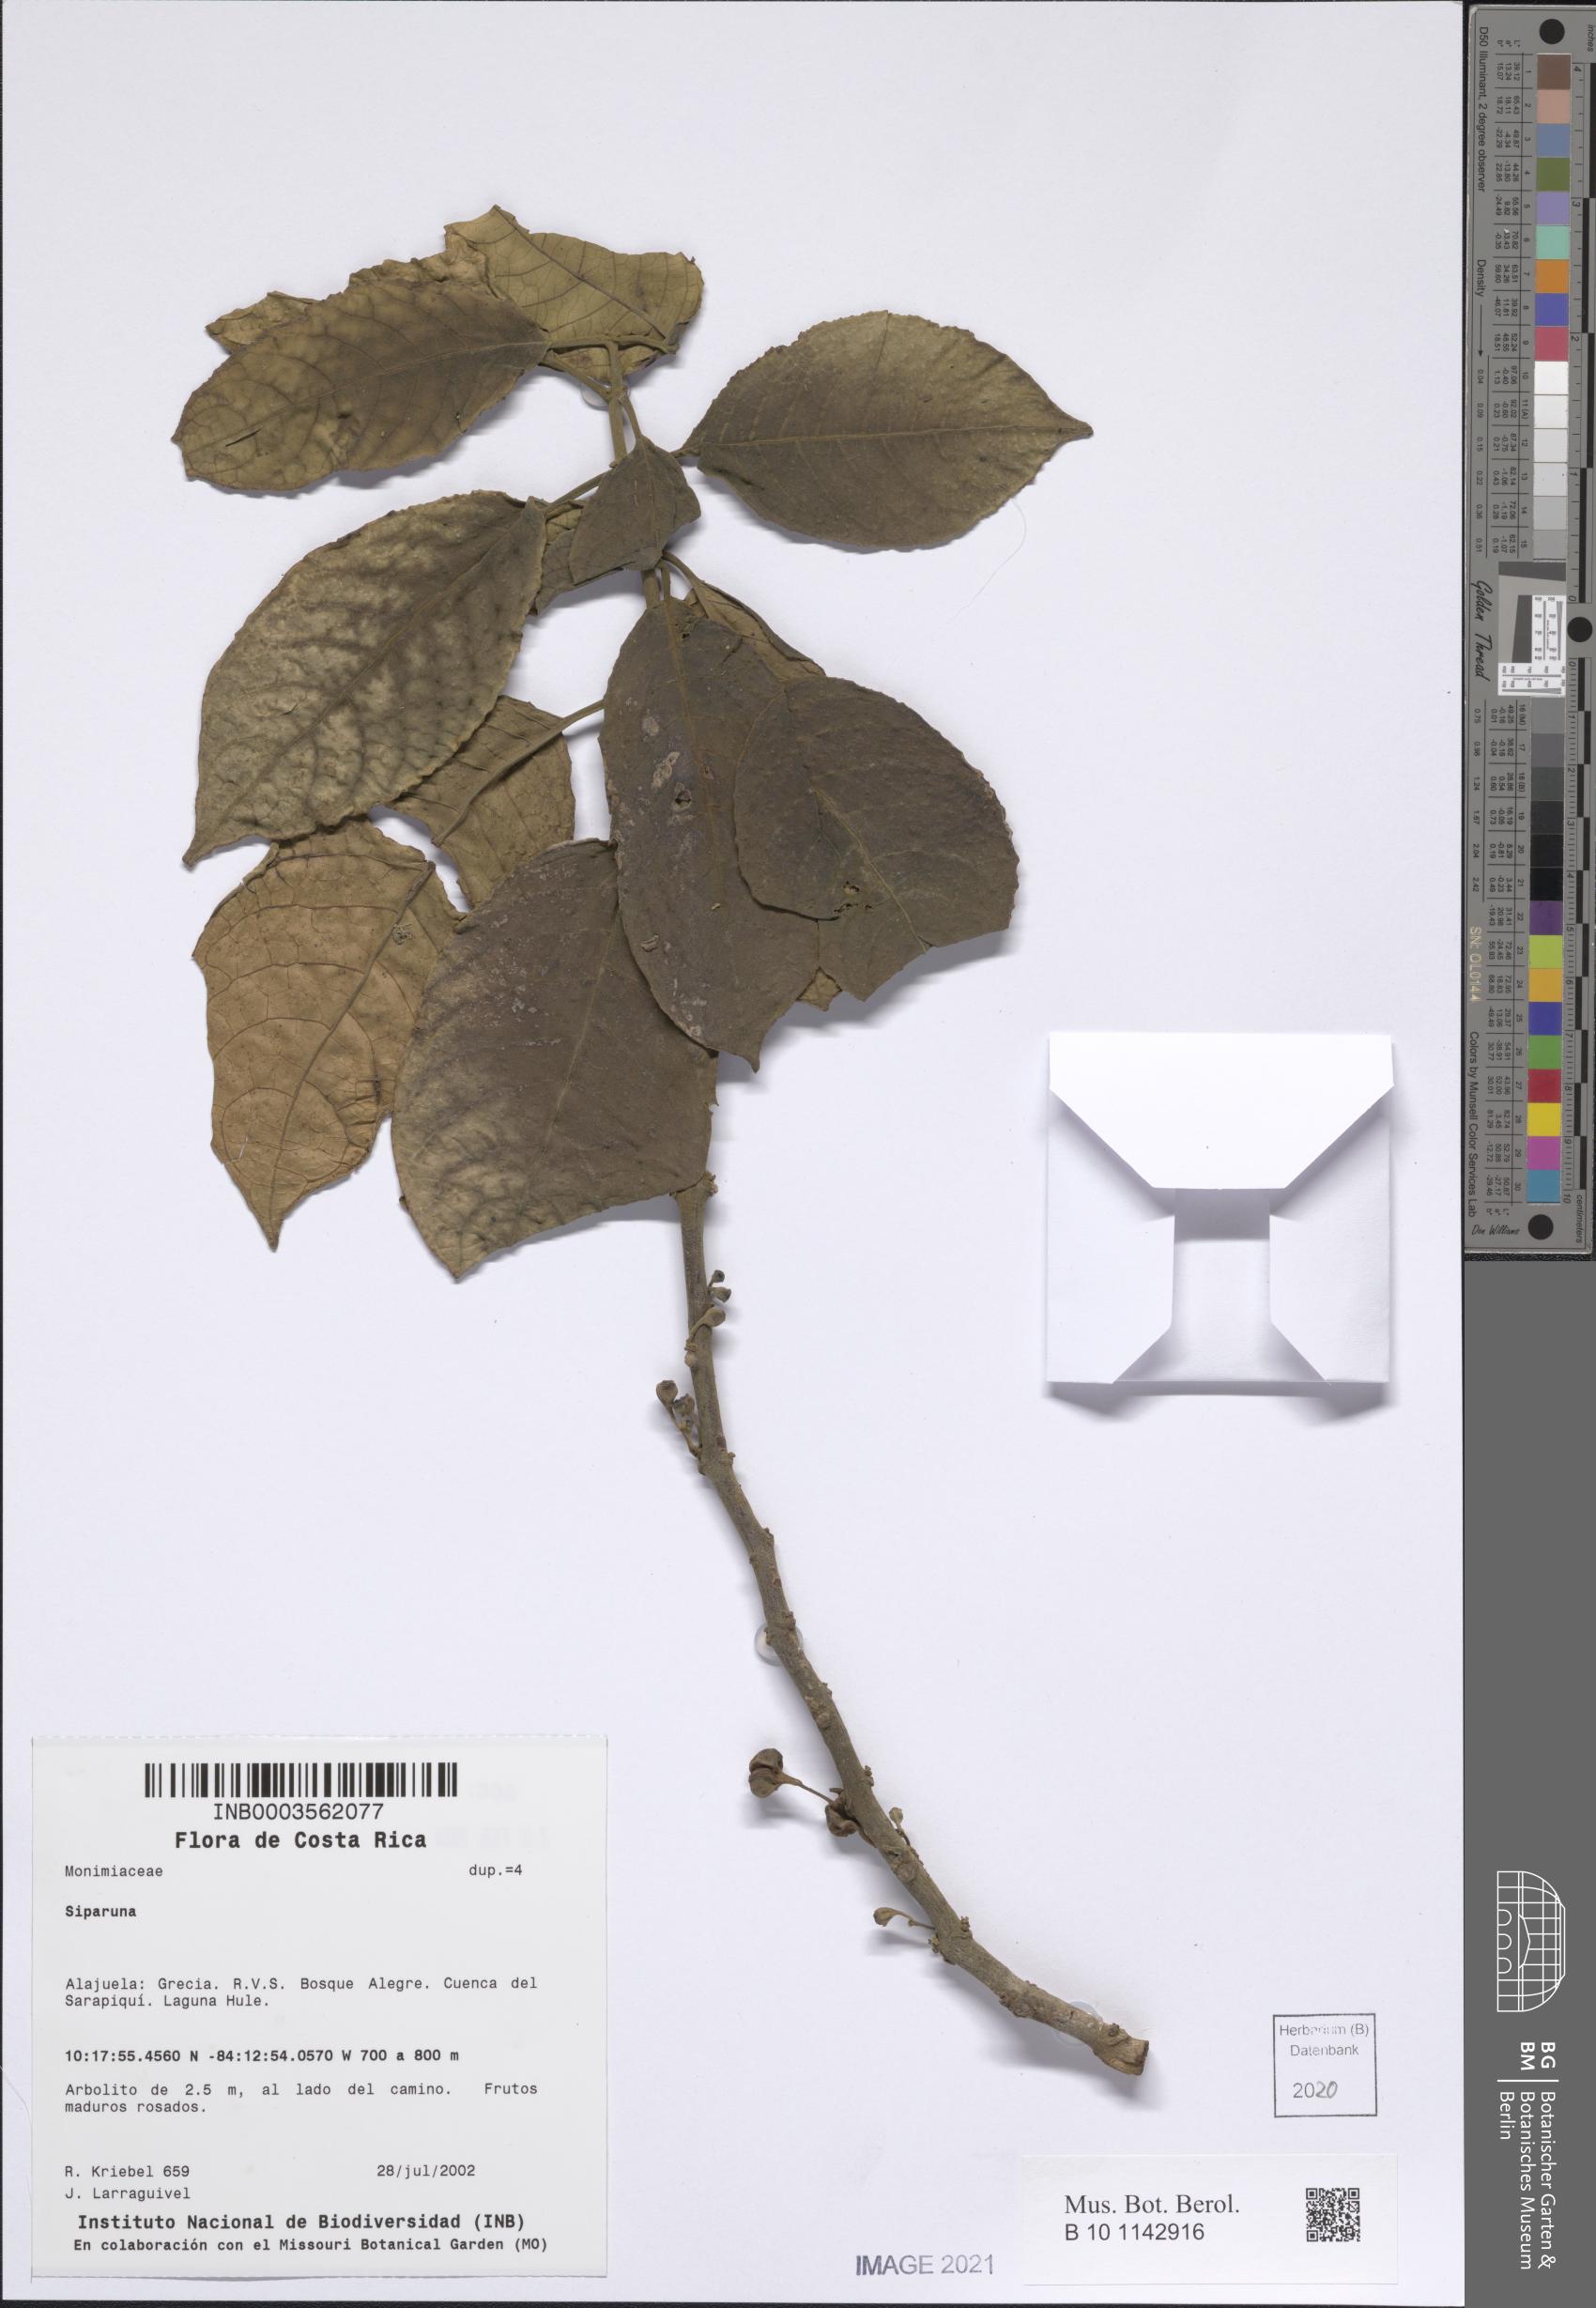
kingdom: Plantae
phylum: Tracheophyta
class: Magnoliopsida
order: Laurales
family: Siparunaceae
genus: Siparuna
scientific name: Siparuna
